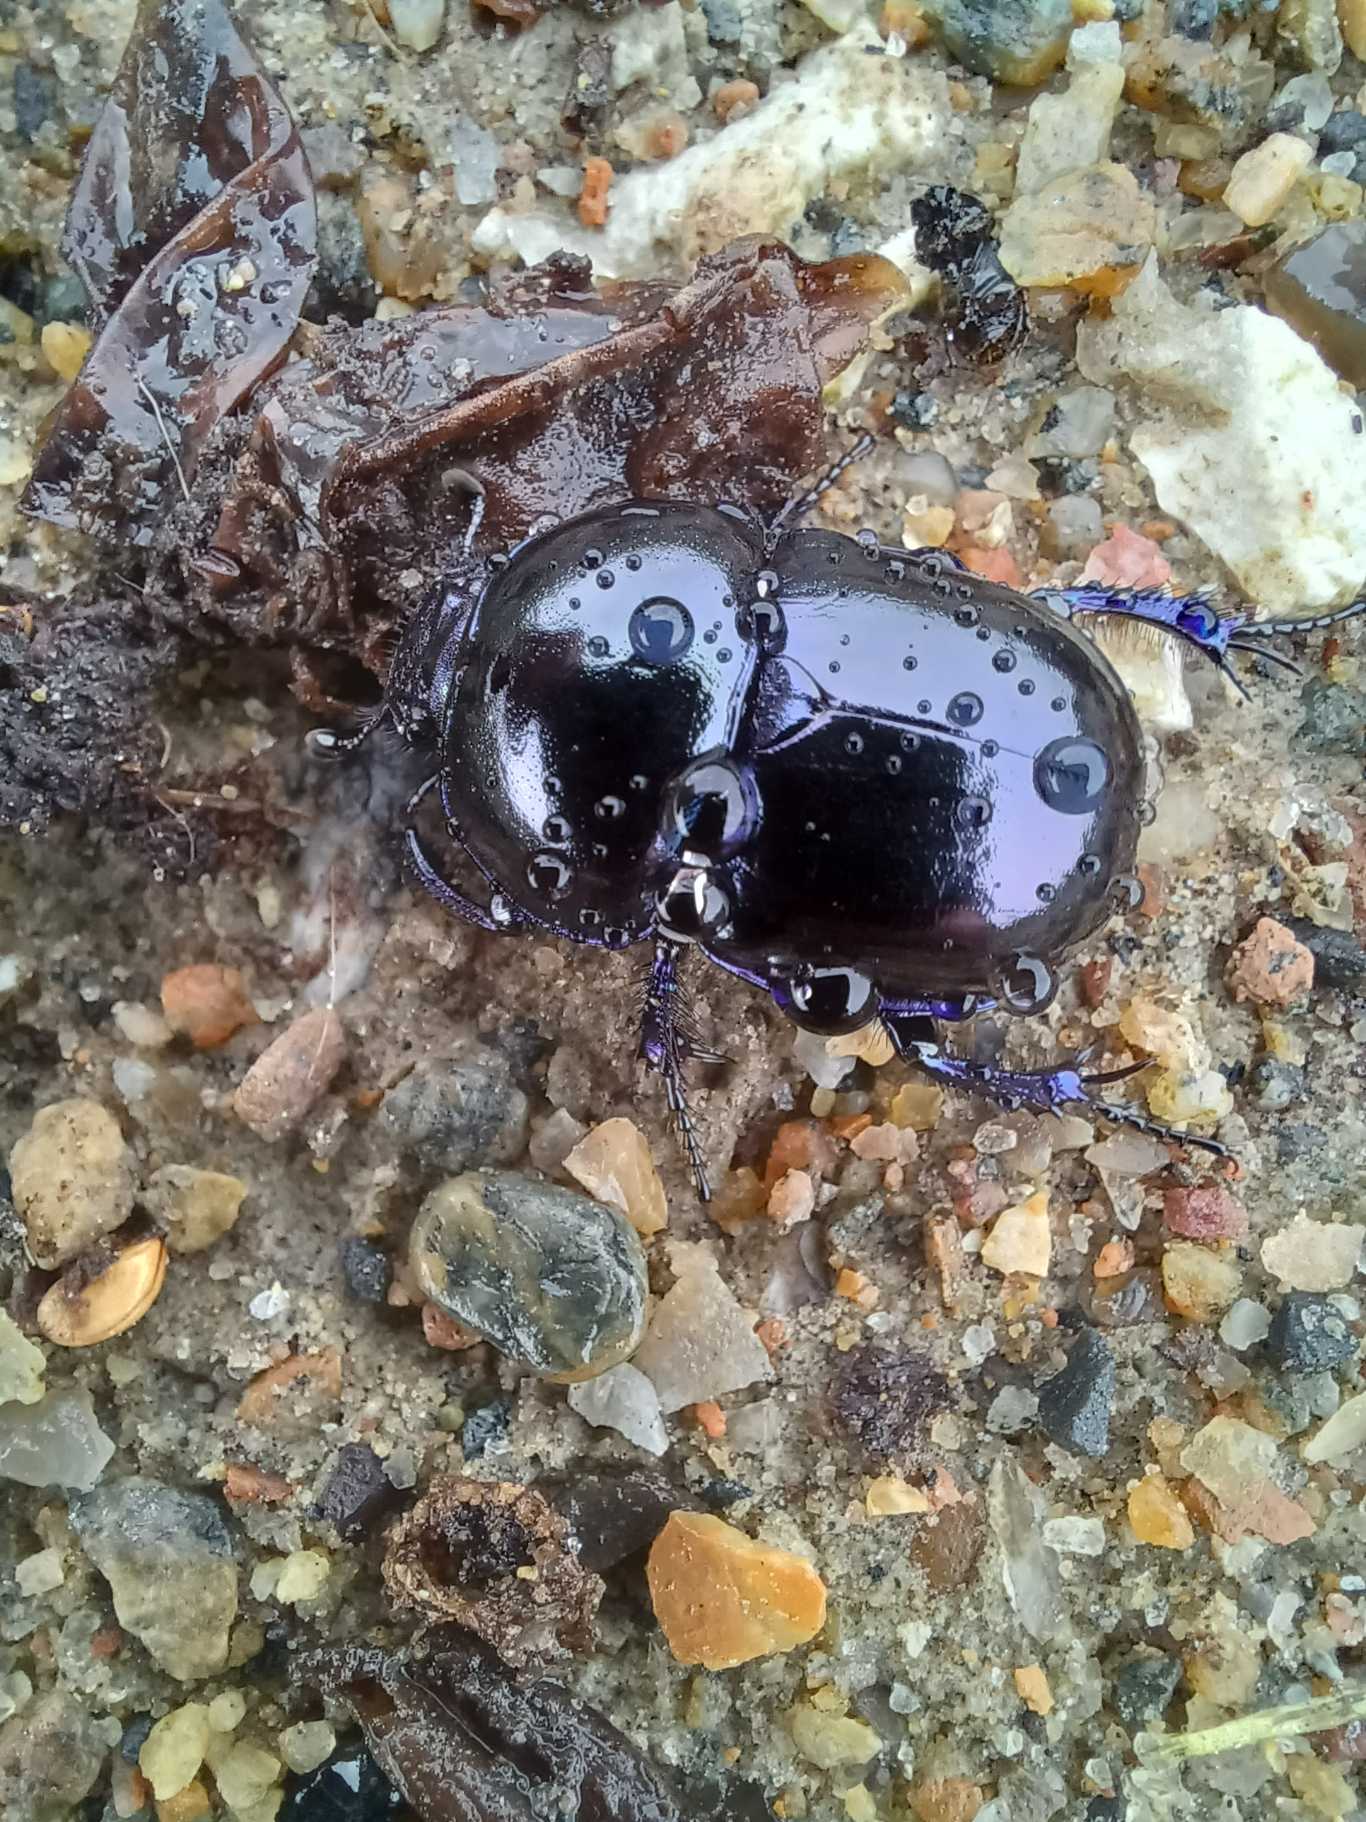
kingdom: Animalia
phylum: Arthropoda
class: Insecta
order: Coleoptera
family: Geotrupidae
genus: Trypocopris
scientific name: Trypocopris vernalis
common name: Glat skarnbasse
